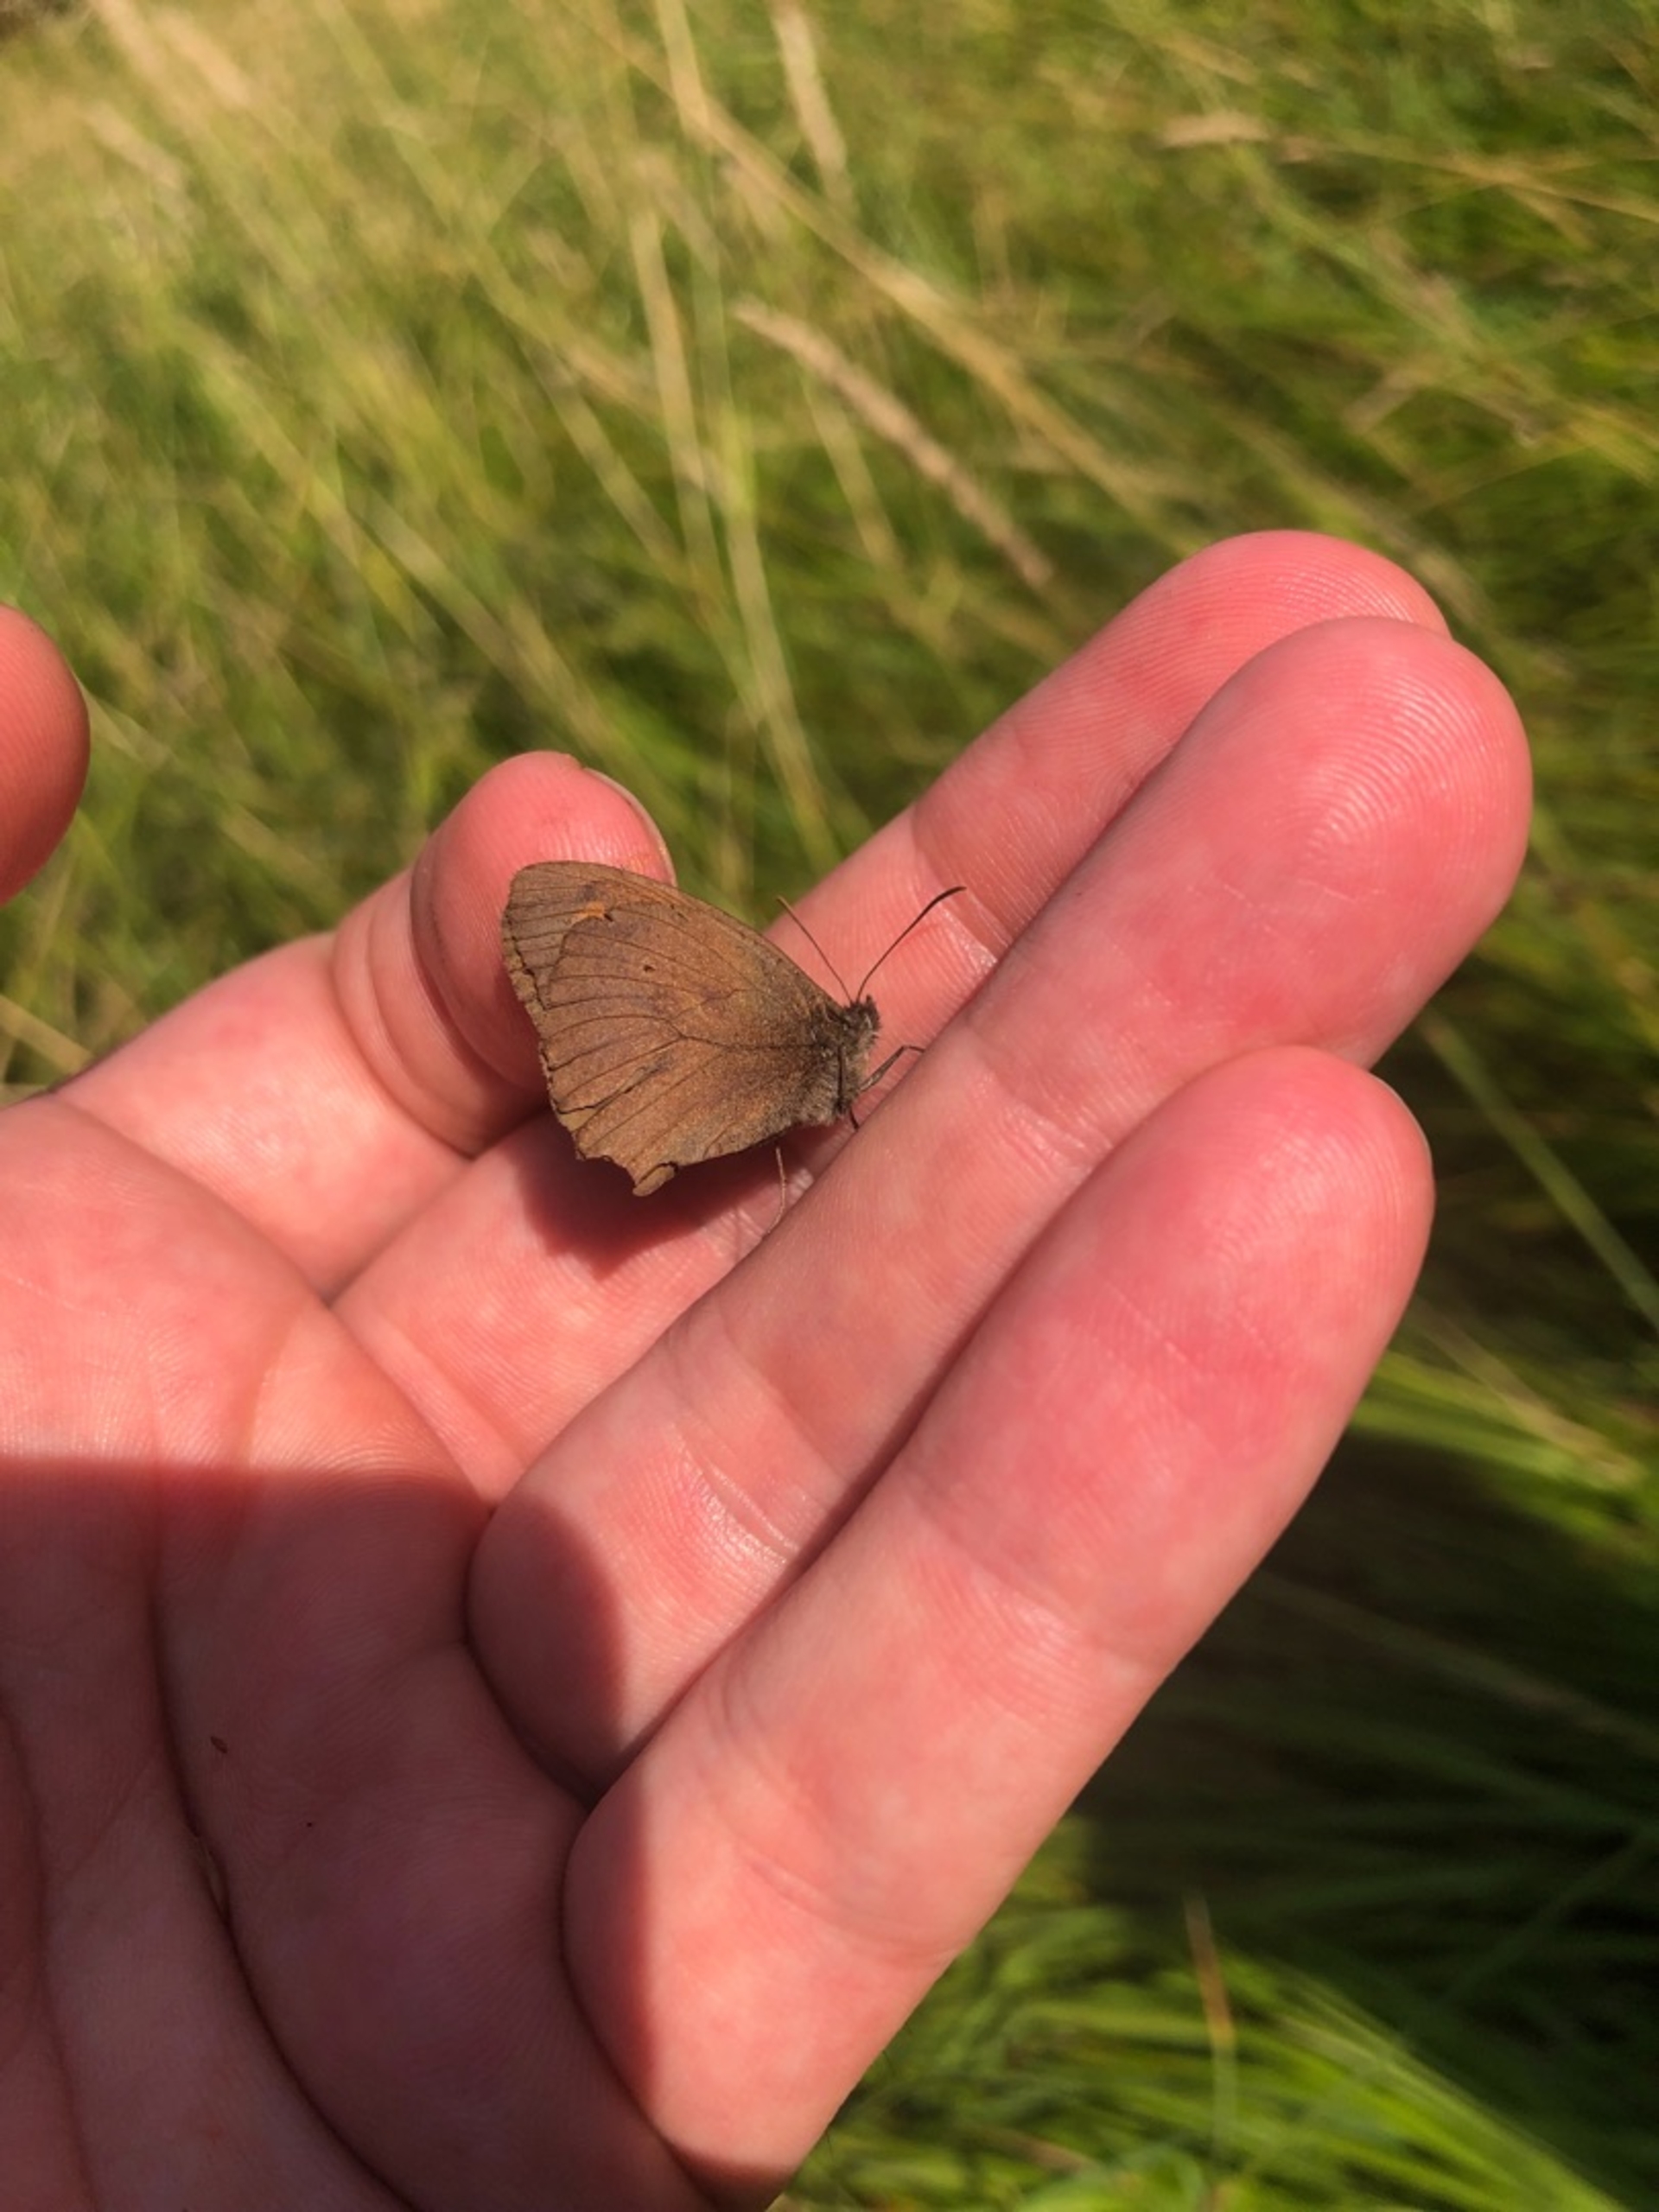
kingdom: Animalia
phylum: Arthropoda
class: Insecta
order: Lepidoptera
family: Nymphalidae
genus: Maniola
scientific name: Maniola jurtina
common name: Græsrandøje
